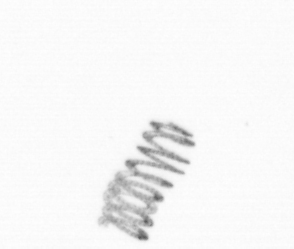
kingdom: Chromista
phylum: Ochrophyta
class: Bacillariophyceae
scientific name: Bacillariophyceae
